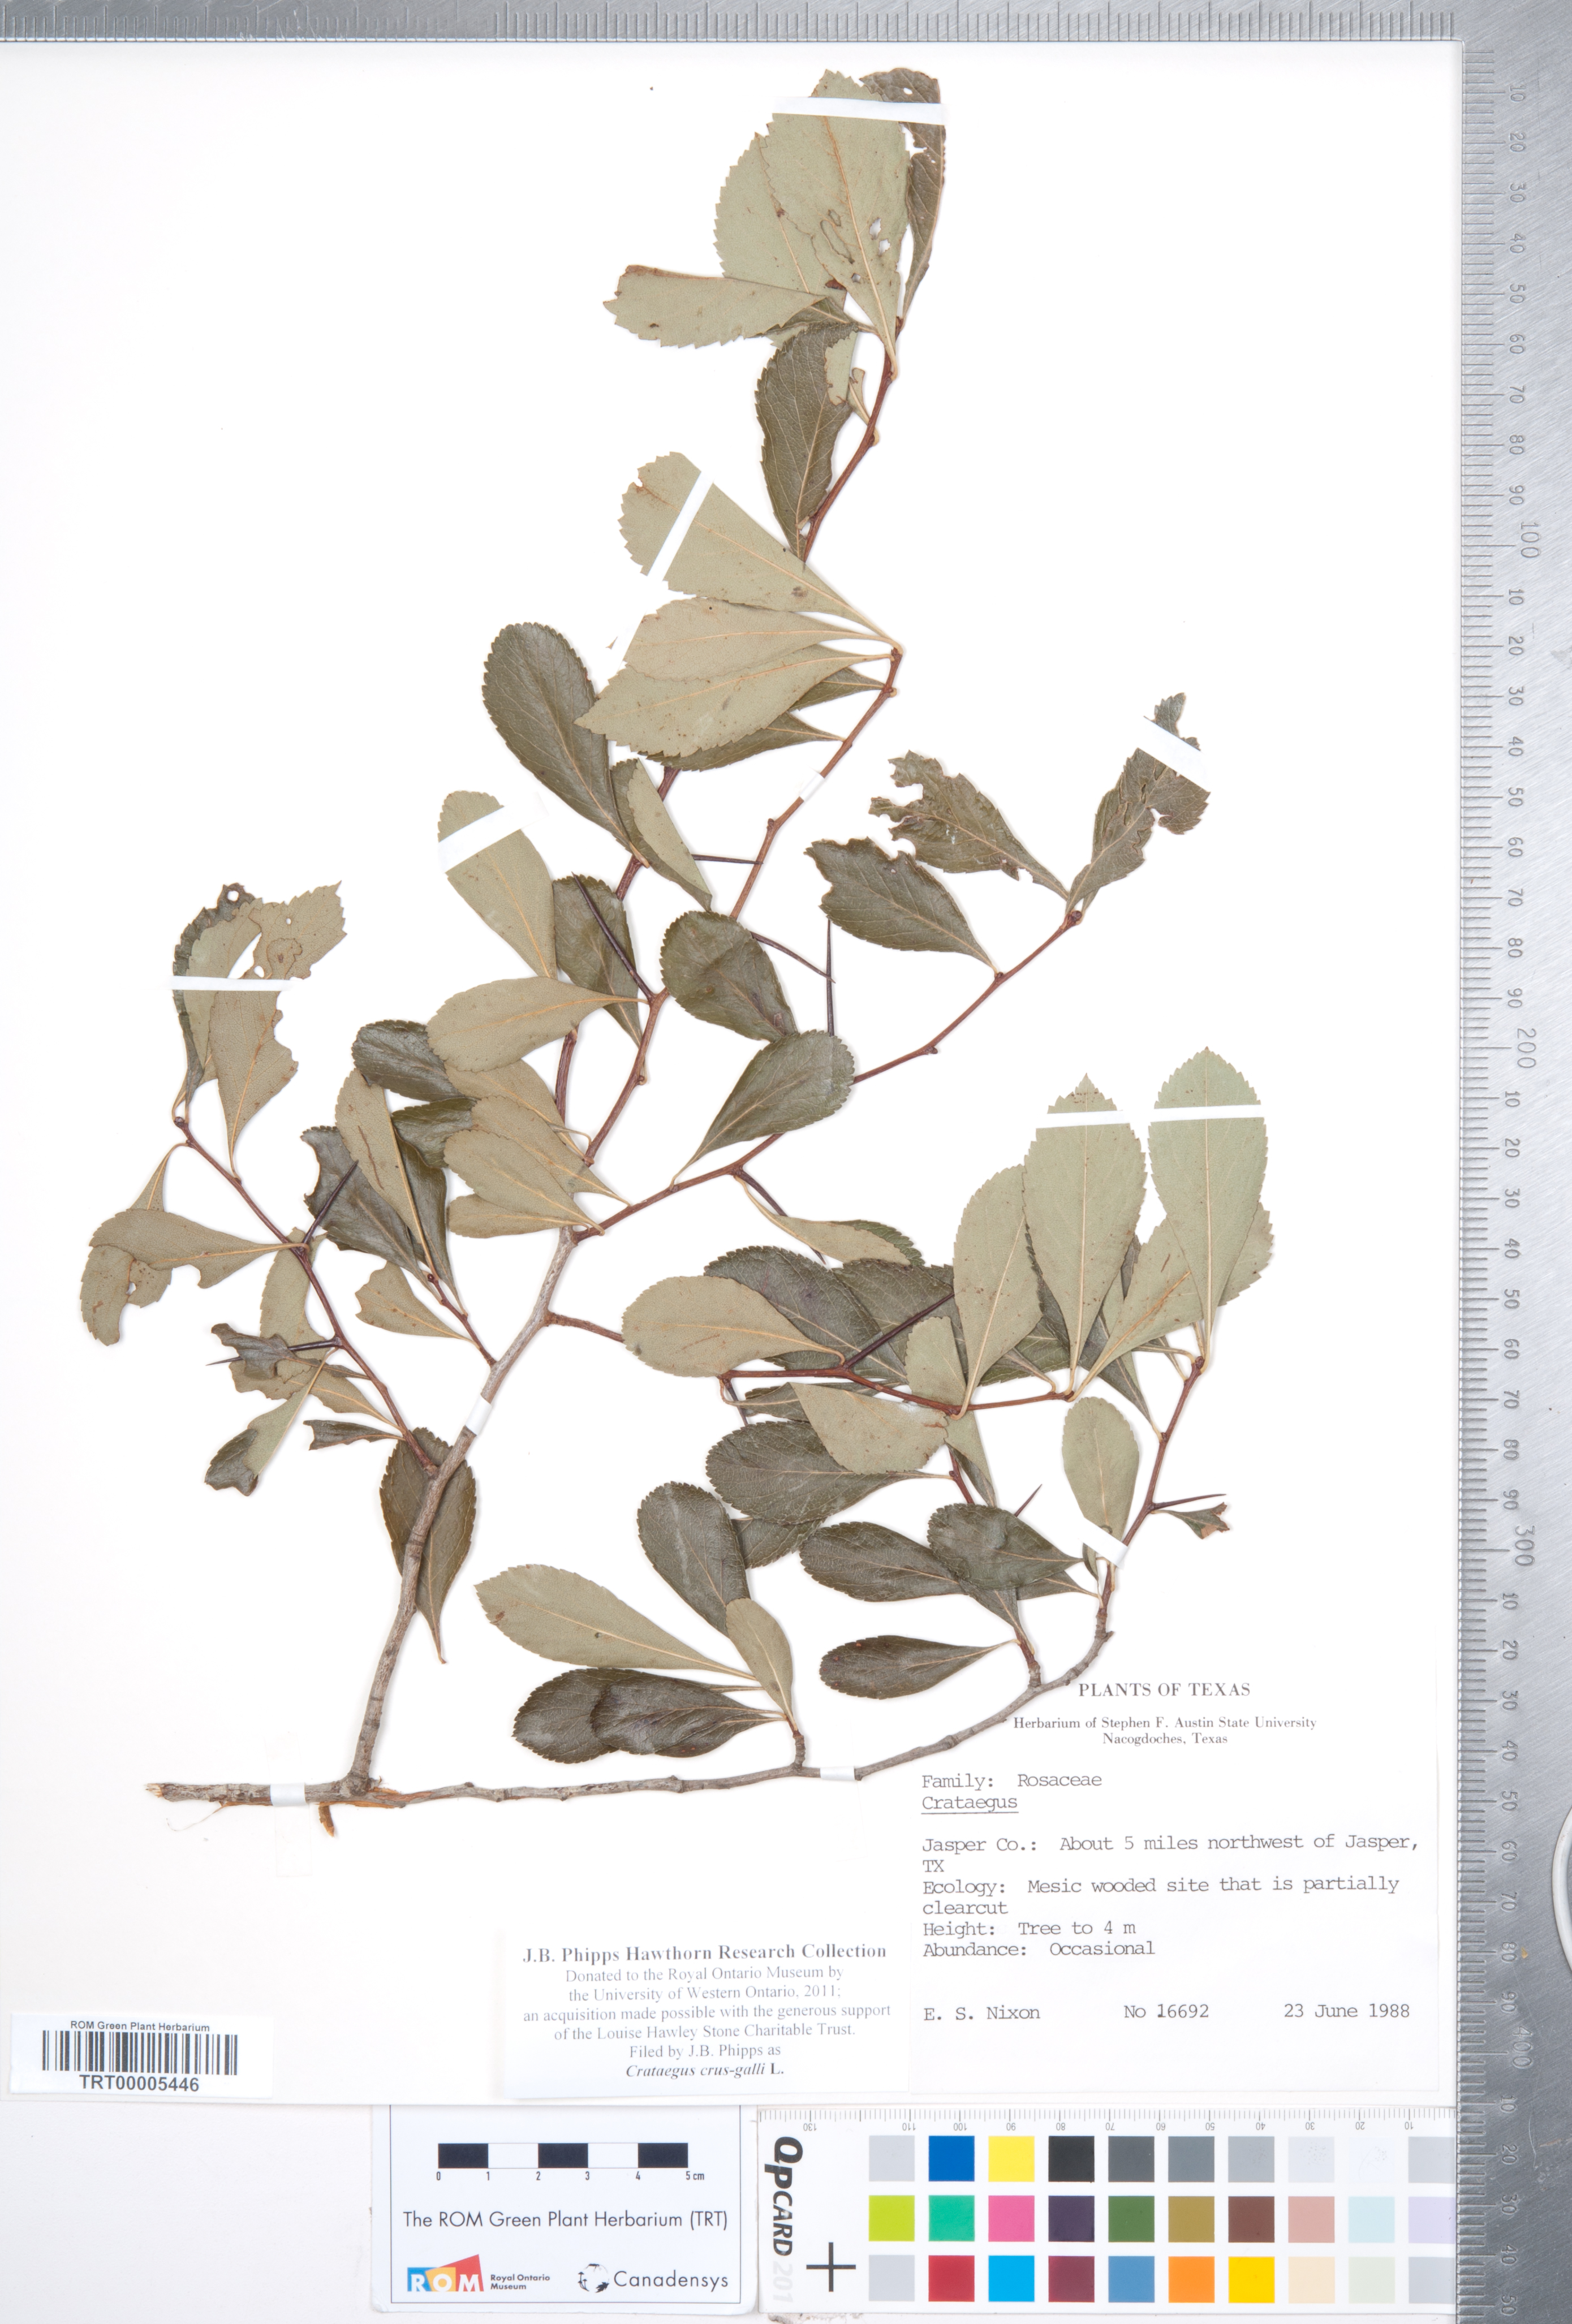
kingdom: Plantae
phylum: Tracheophyta
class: Magnoliopsida
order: Rosales
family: Rosaceae
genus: Crataegus
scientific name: Crataegus crus-galli
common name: Cockspurthorn
